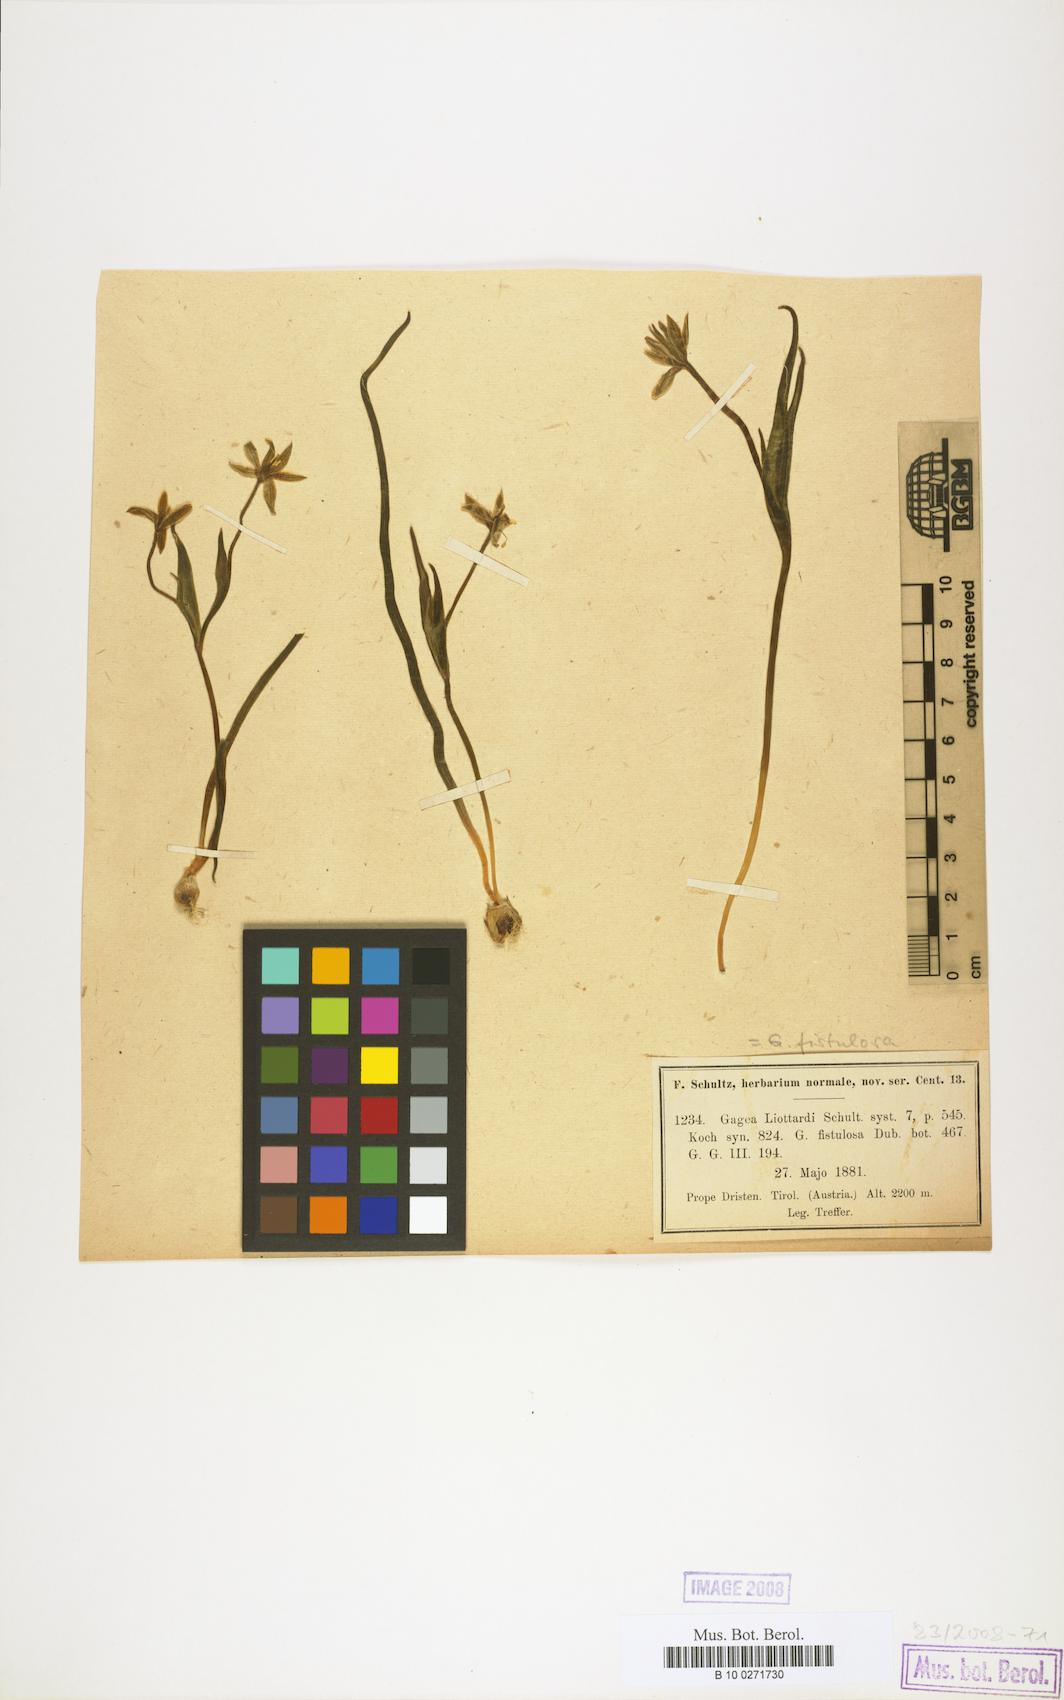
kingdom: Plantae
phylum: Tracheophyta
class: Liliopsida
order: Liliales
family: Liliaceae
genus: Gagea
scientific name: Gagea bohemica
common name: Early star-of-bethlehem
